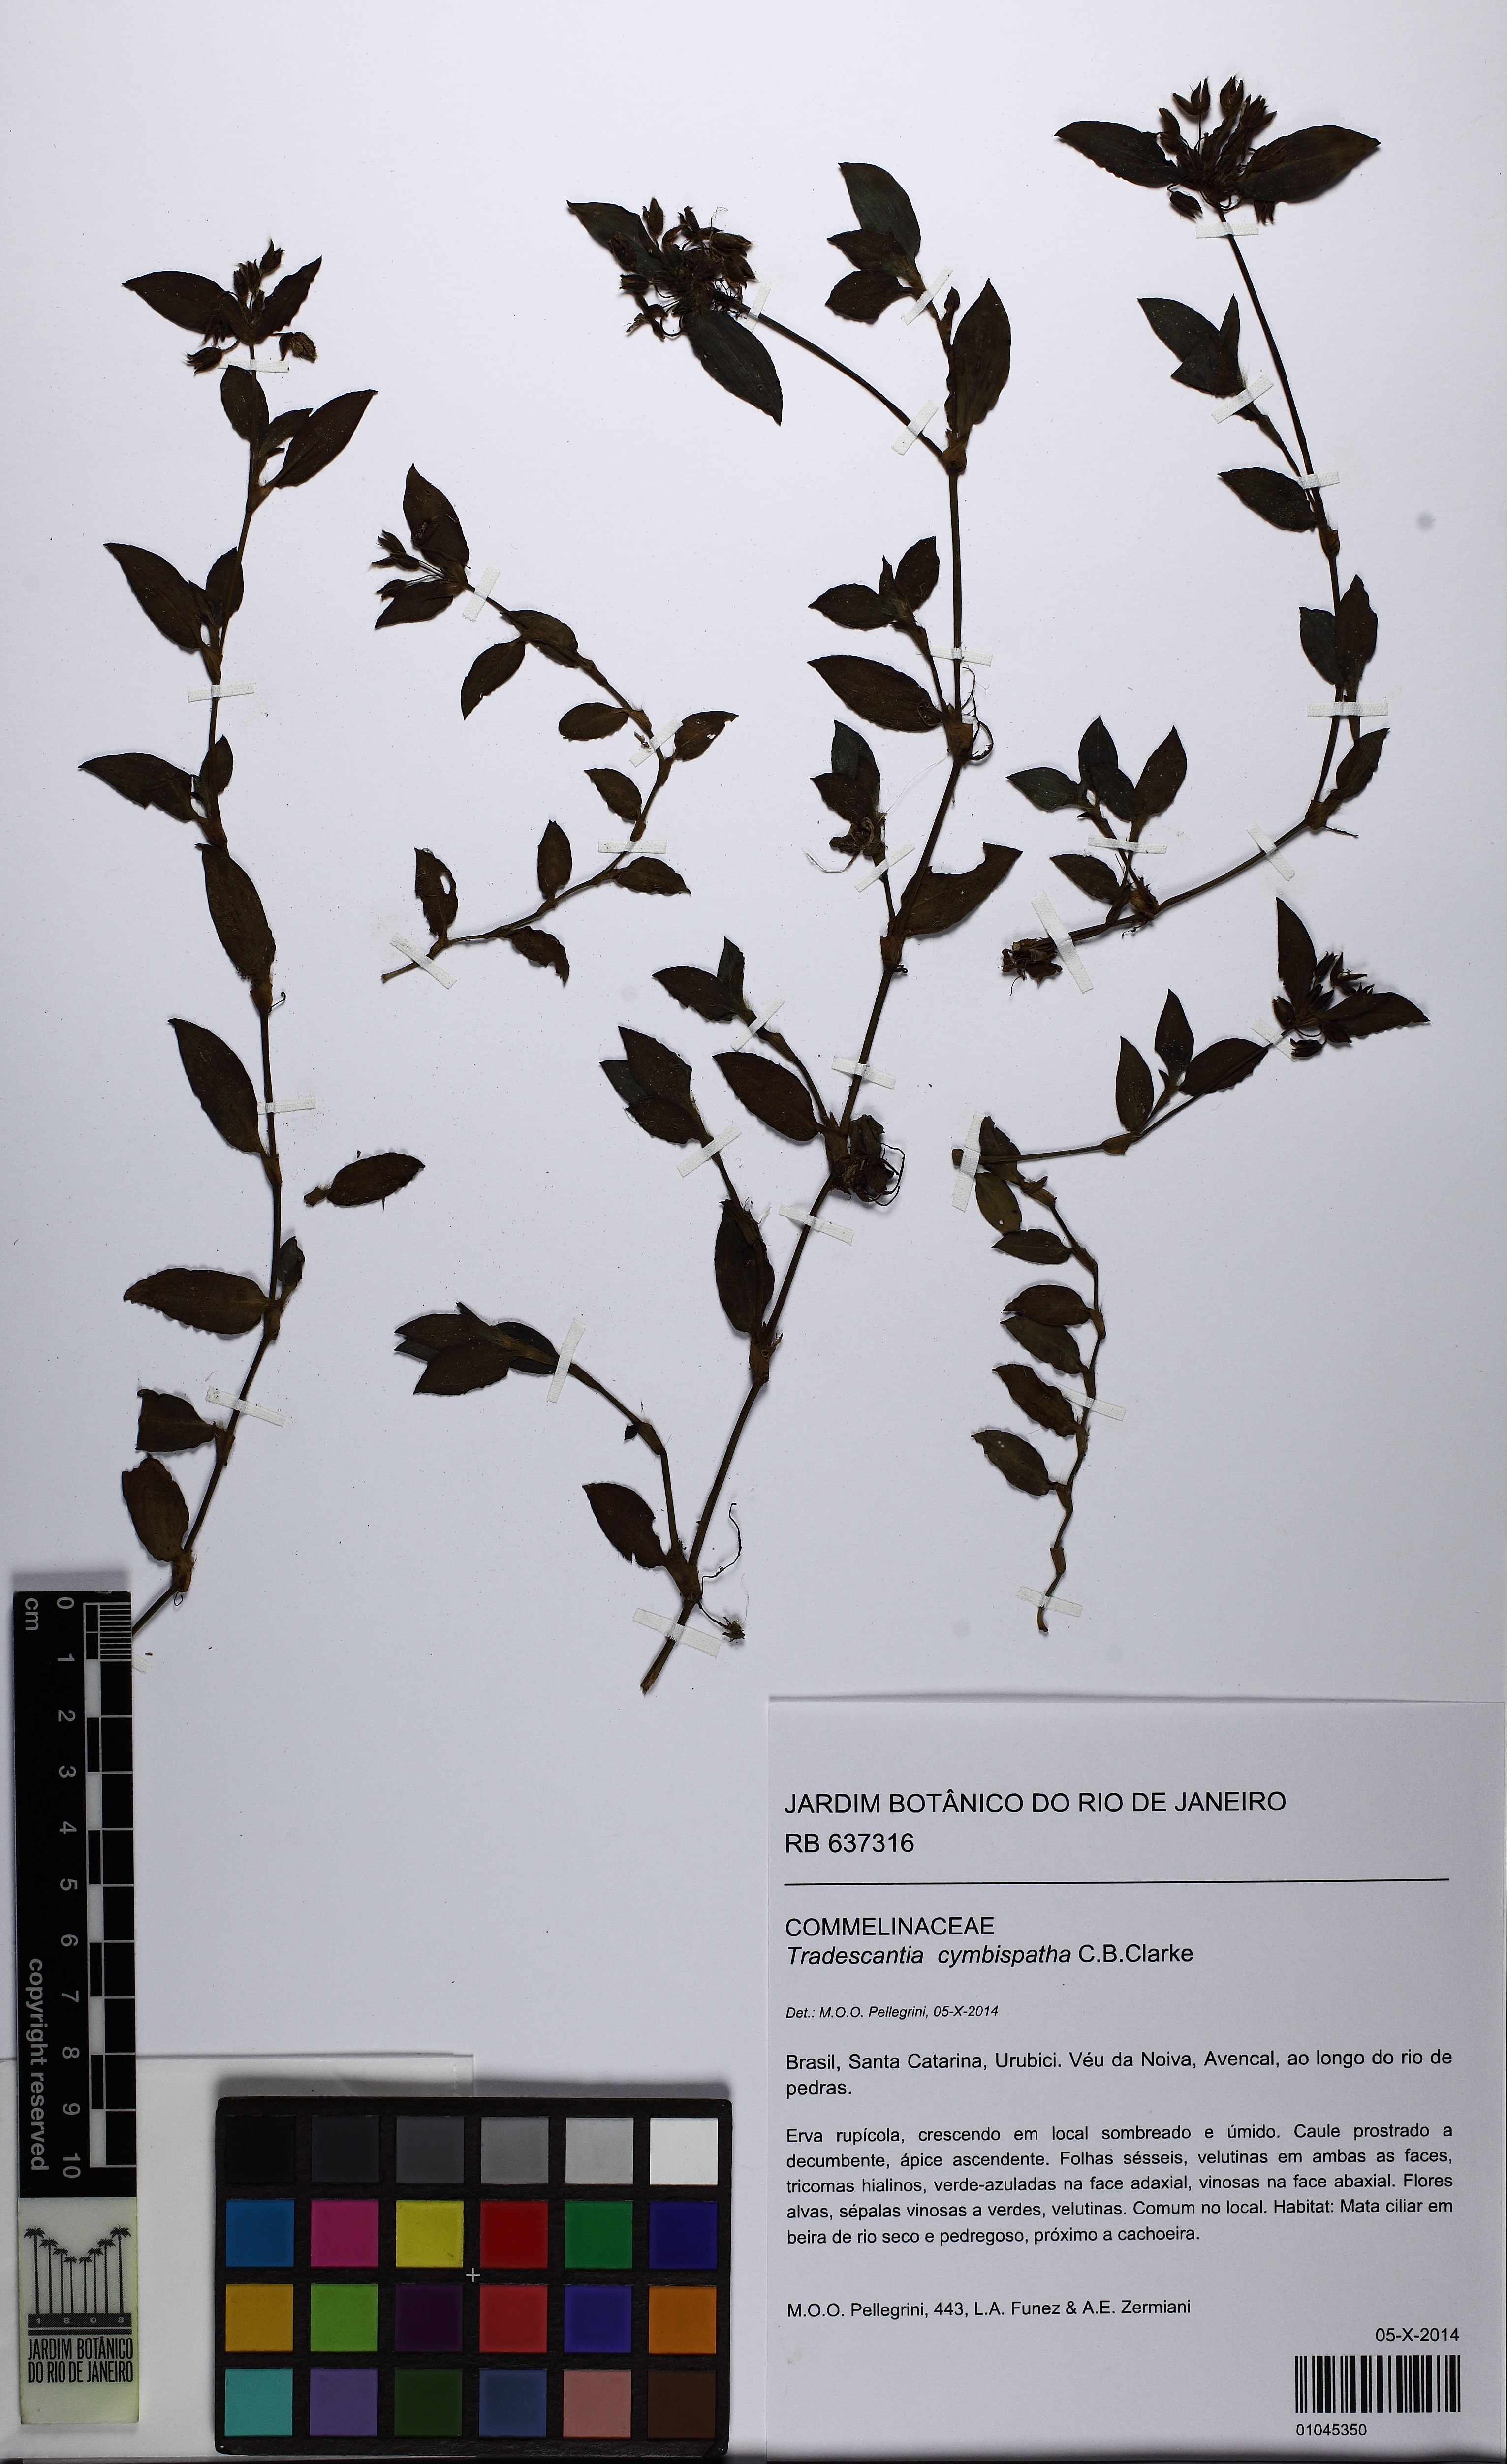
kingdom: Plantae
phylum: Tracheophyta
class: Liliopsida
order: Commelinales
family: Commelinaceae
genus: Tradescantia
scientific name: Tradescantia cymbispatha
